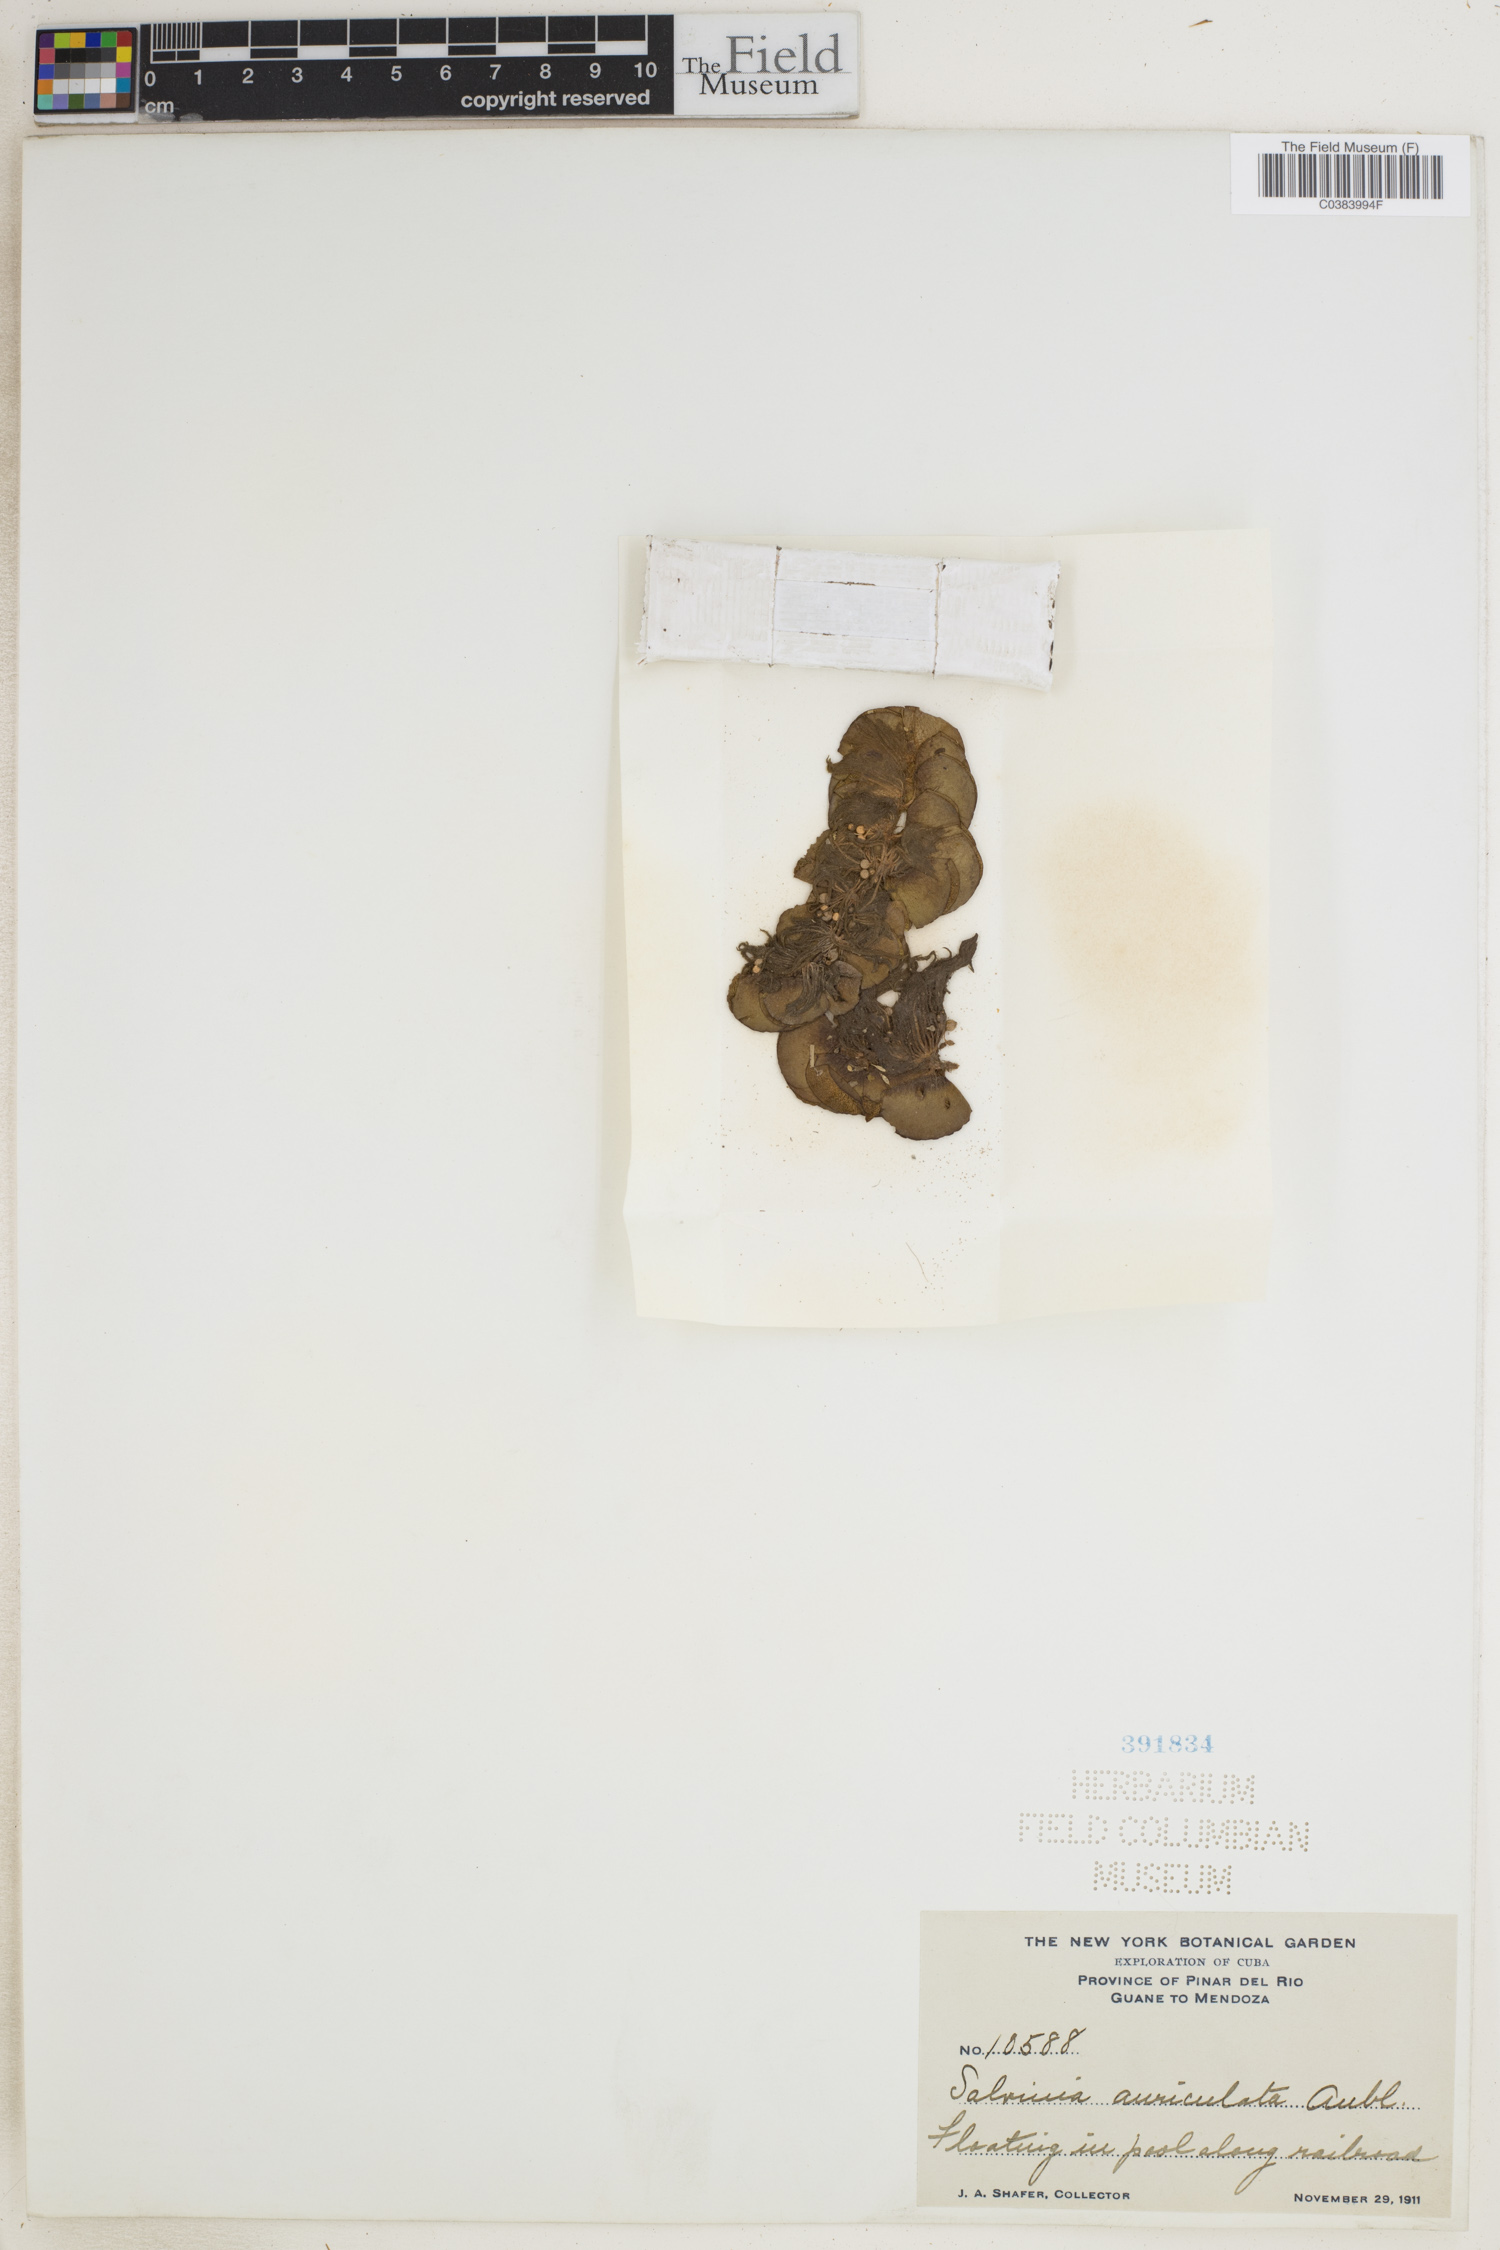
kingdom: Plantae
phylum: Tracheophyta
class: Polypodiopsida
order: Salviniales
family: Salviniaceae
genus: Salvinia
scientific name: Salvinia auriculata
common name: African payal
